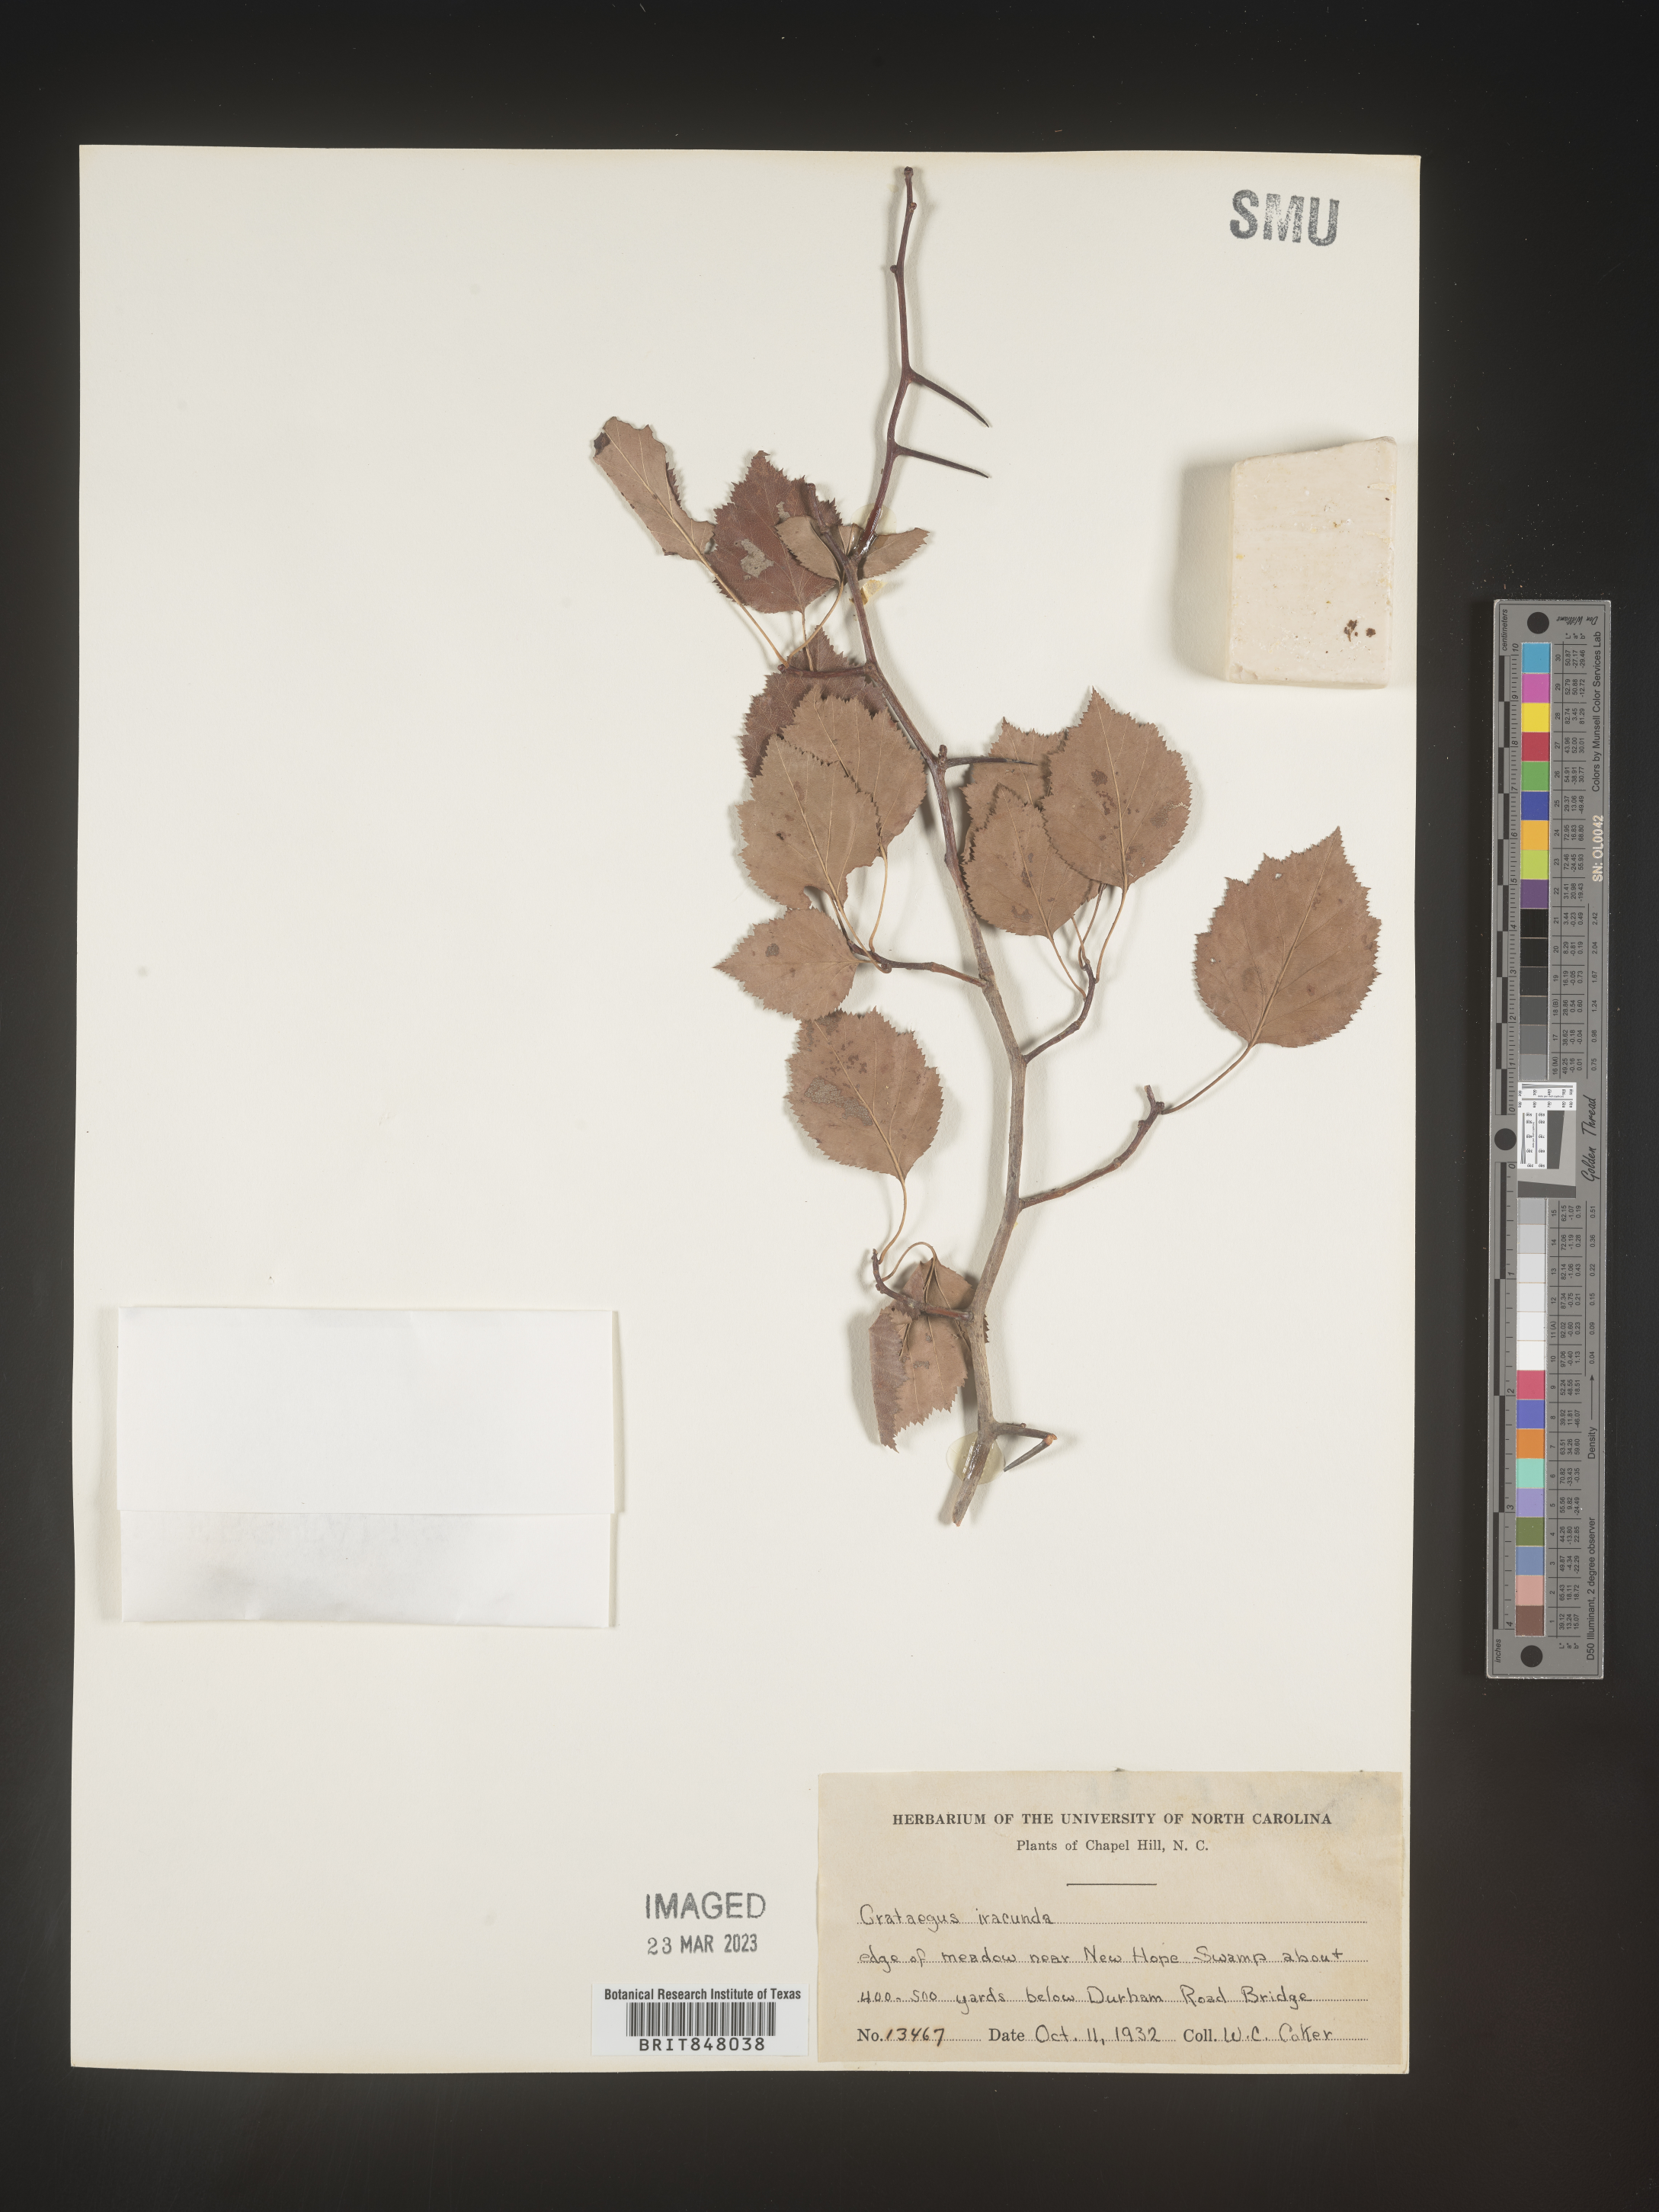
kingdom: Plantae
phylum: Tracheophyta
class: Magnoliopsida
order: Rosales
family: Rosaceae
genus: Crataegus
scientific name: Crataegus
